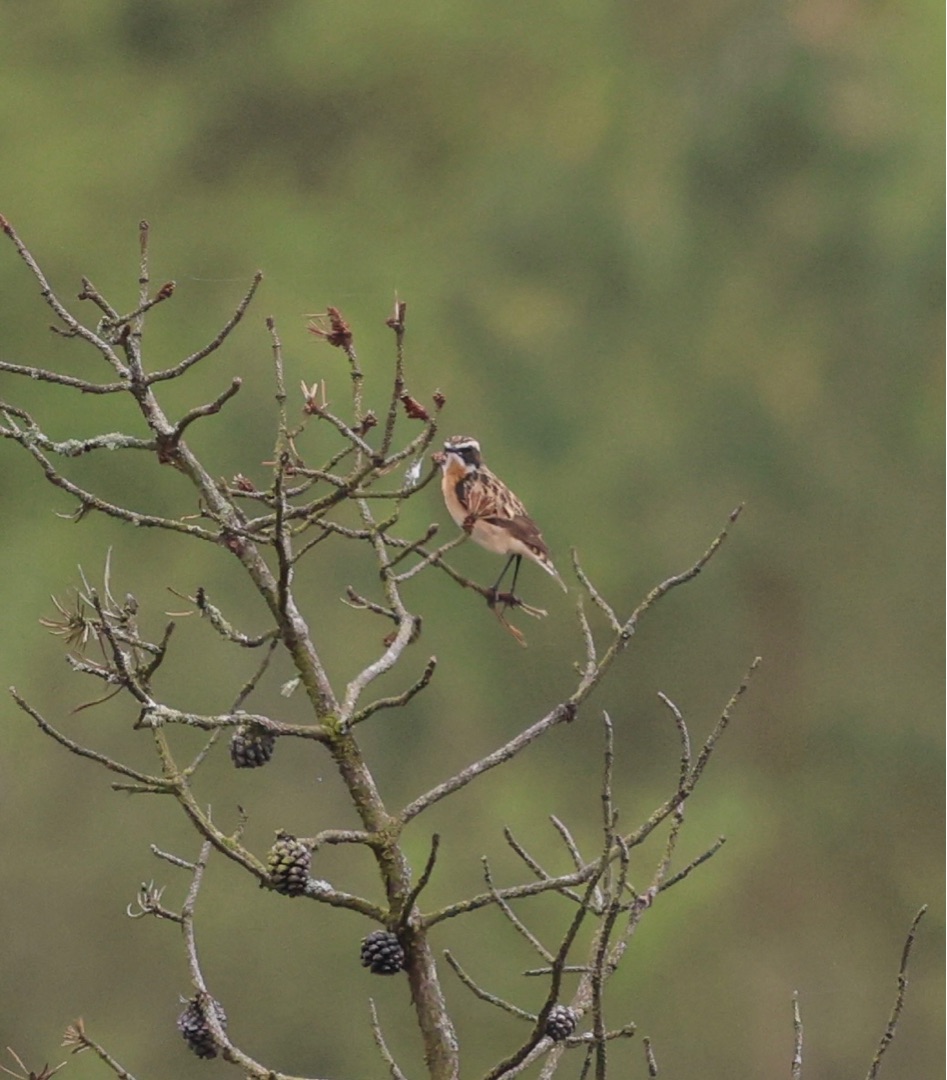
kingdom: Animalia
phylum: Chordata
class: Aves
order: Passeriformes
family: Muscicapidae
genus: Saxicola
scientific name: Saxicola rubetra
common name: Bynkefugl
